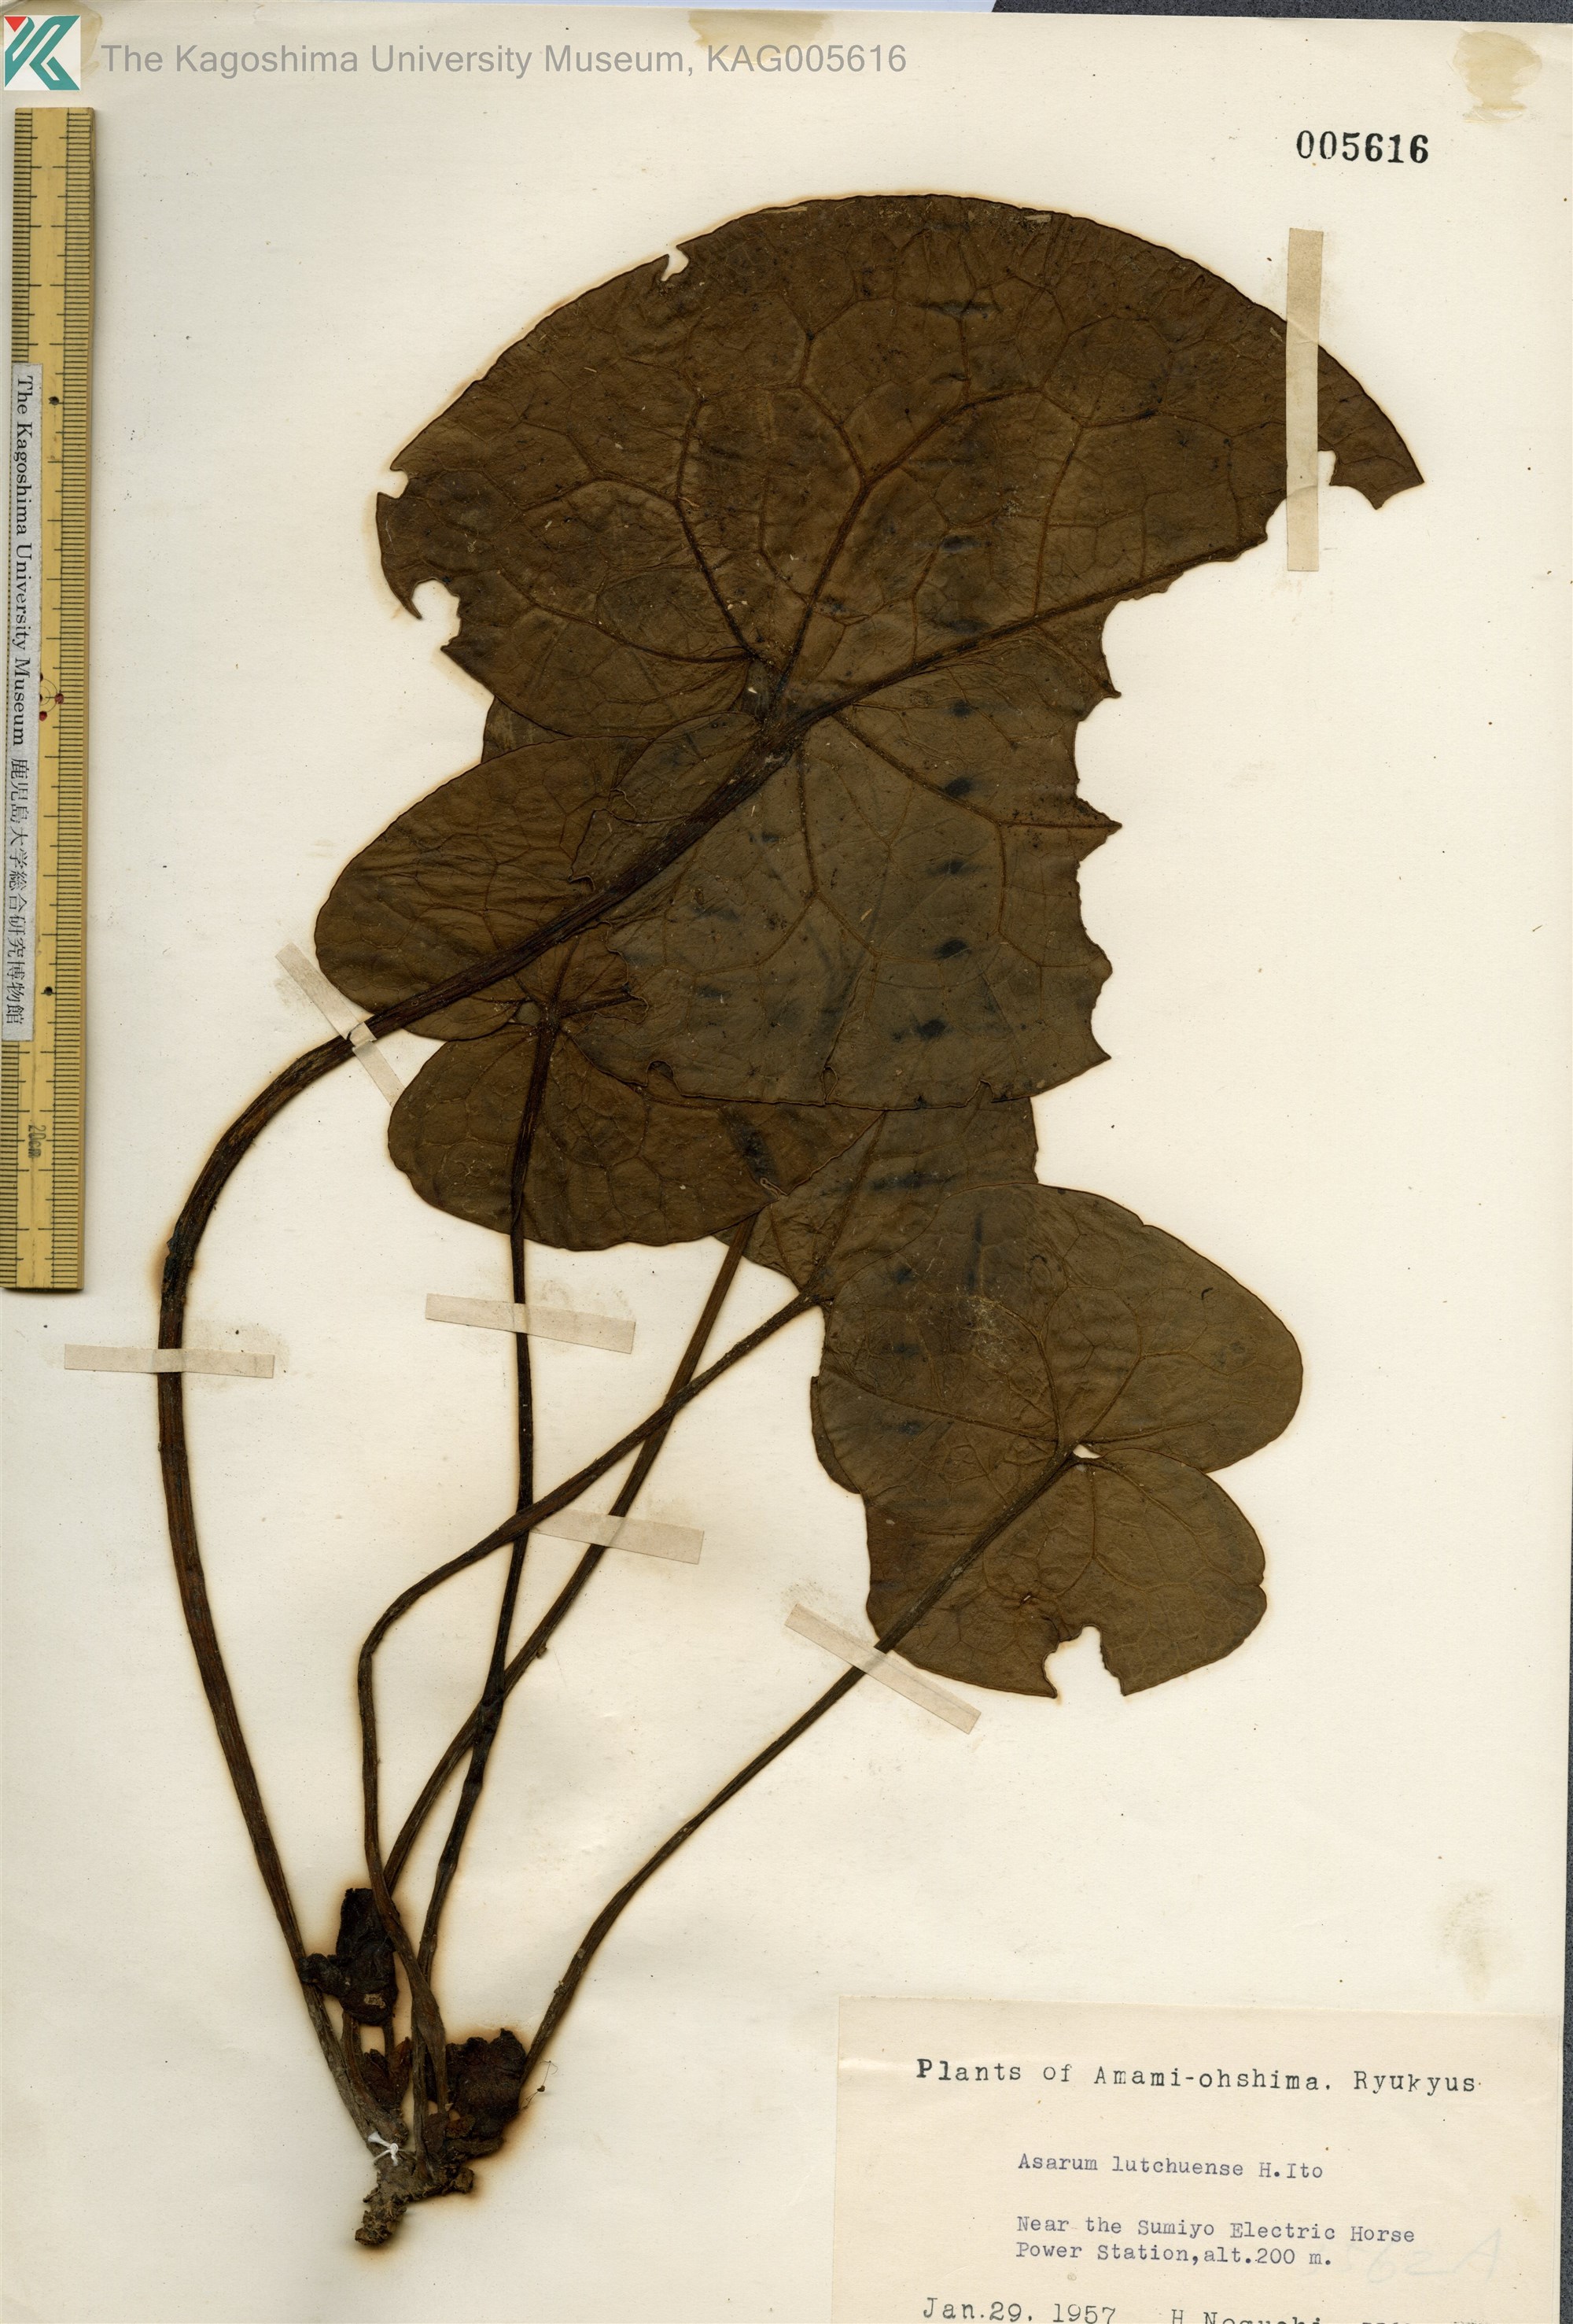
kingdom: Plantae
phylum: Tracheophyta
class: Magnoliopsida
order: Piperales
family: Aristolochiaceae
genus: Asarum
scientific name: Asarum lutchuense
